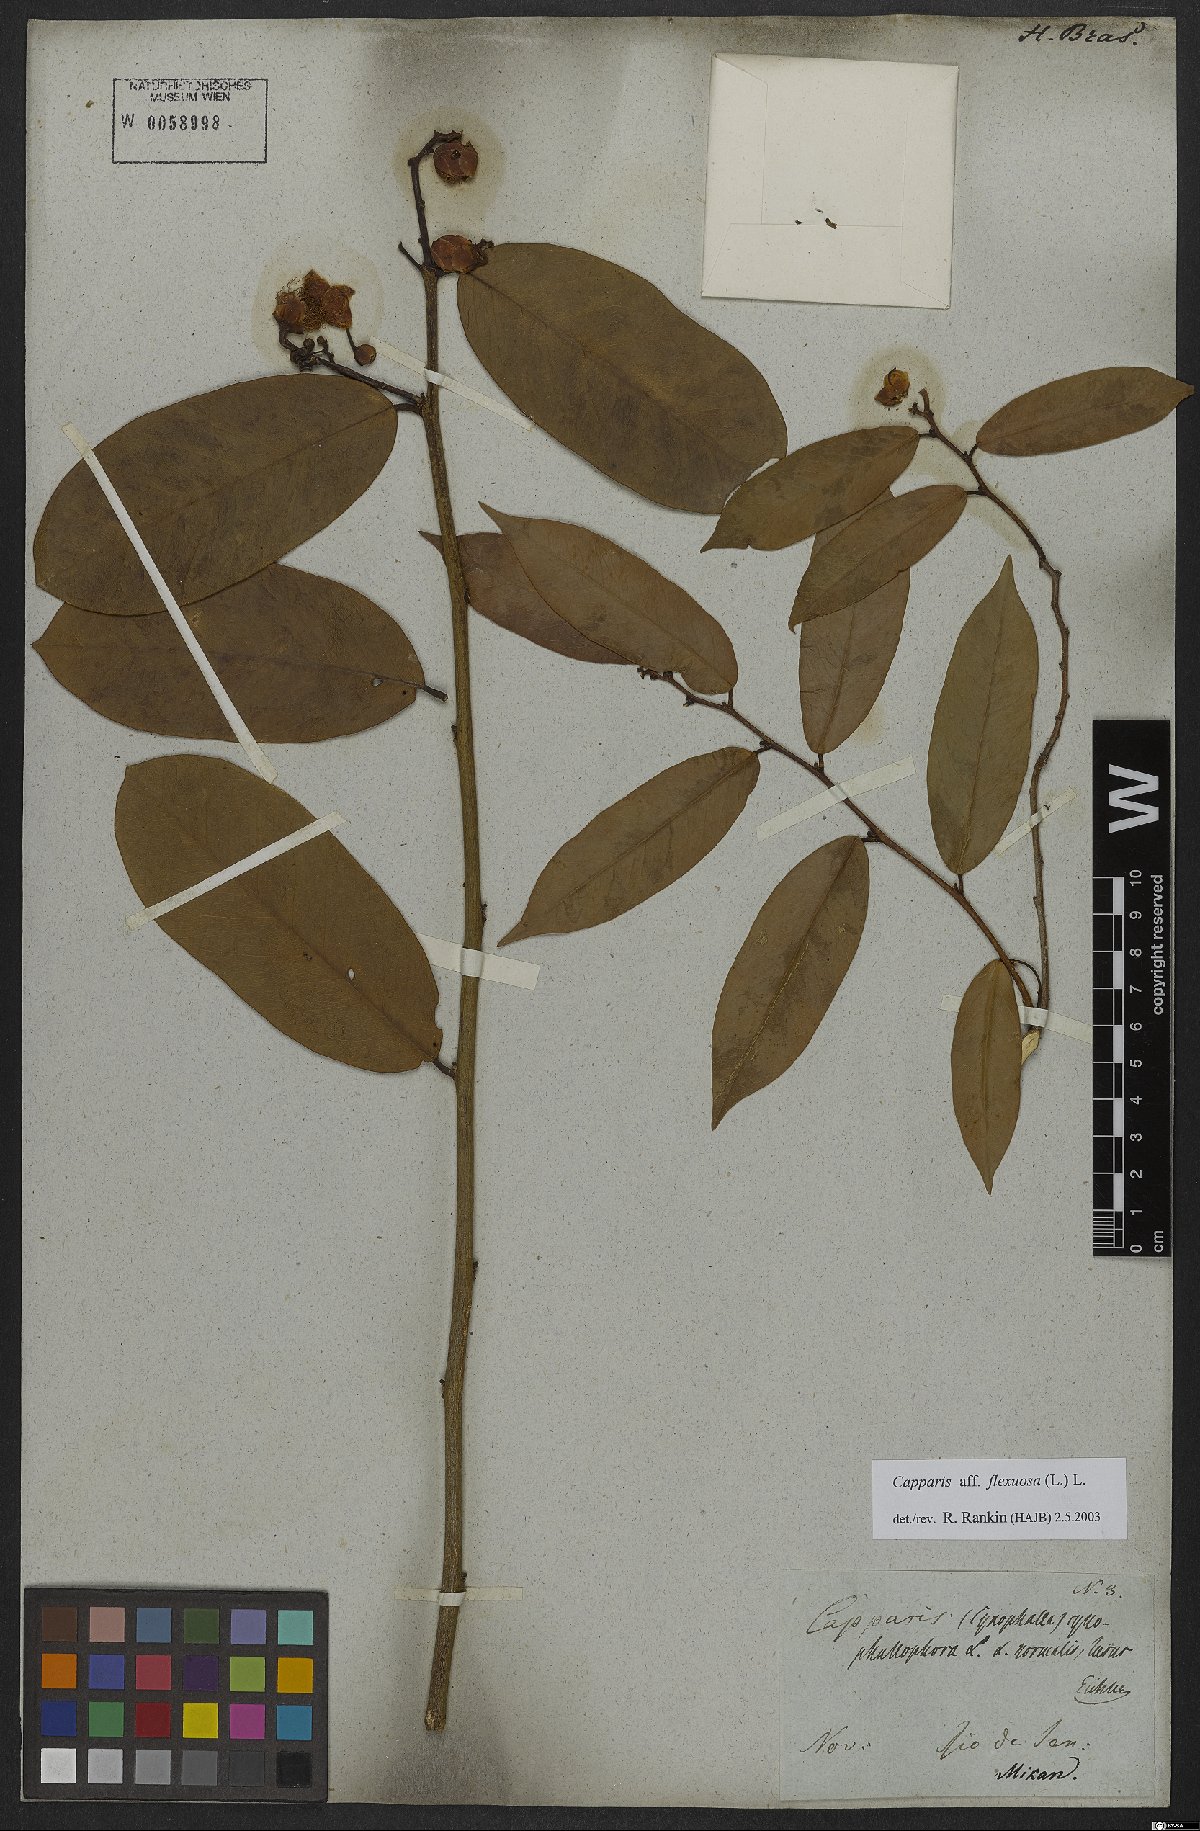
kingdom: Plantae
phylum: Tracheophyta
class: Magnoliopsida
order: Brassicales
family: Capparaceae
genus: Cynophalla
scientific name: Cynophalla flexuosa
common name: Capertree
